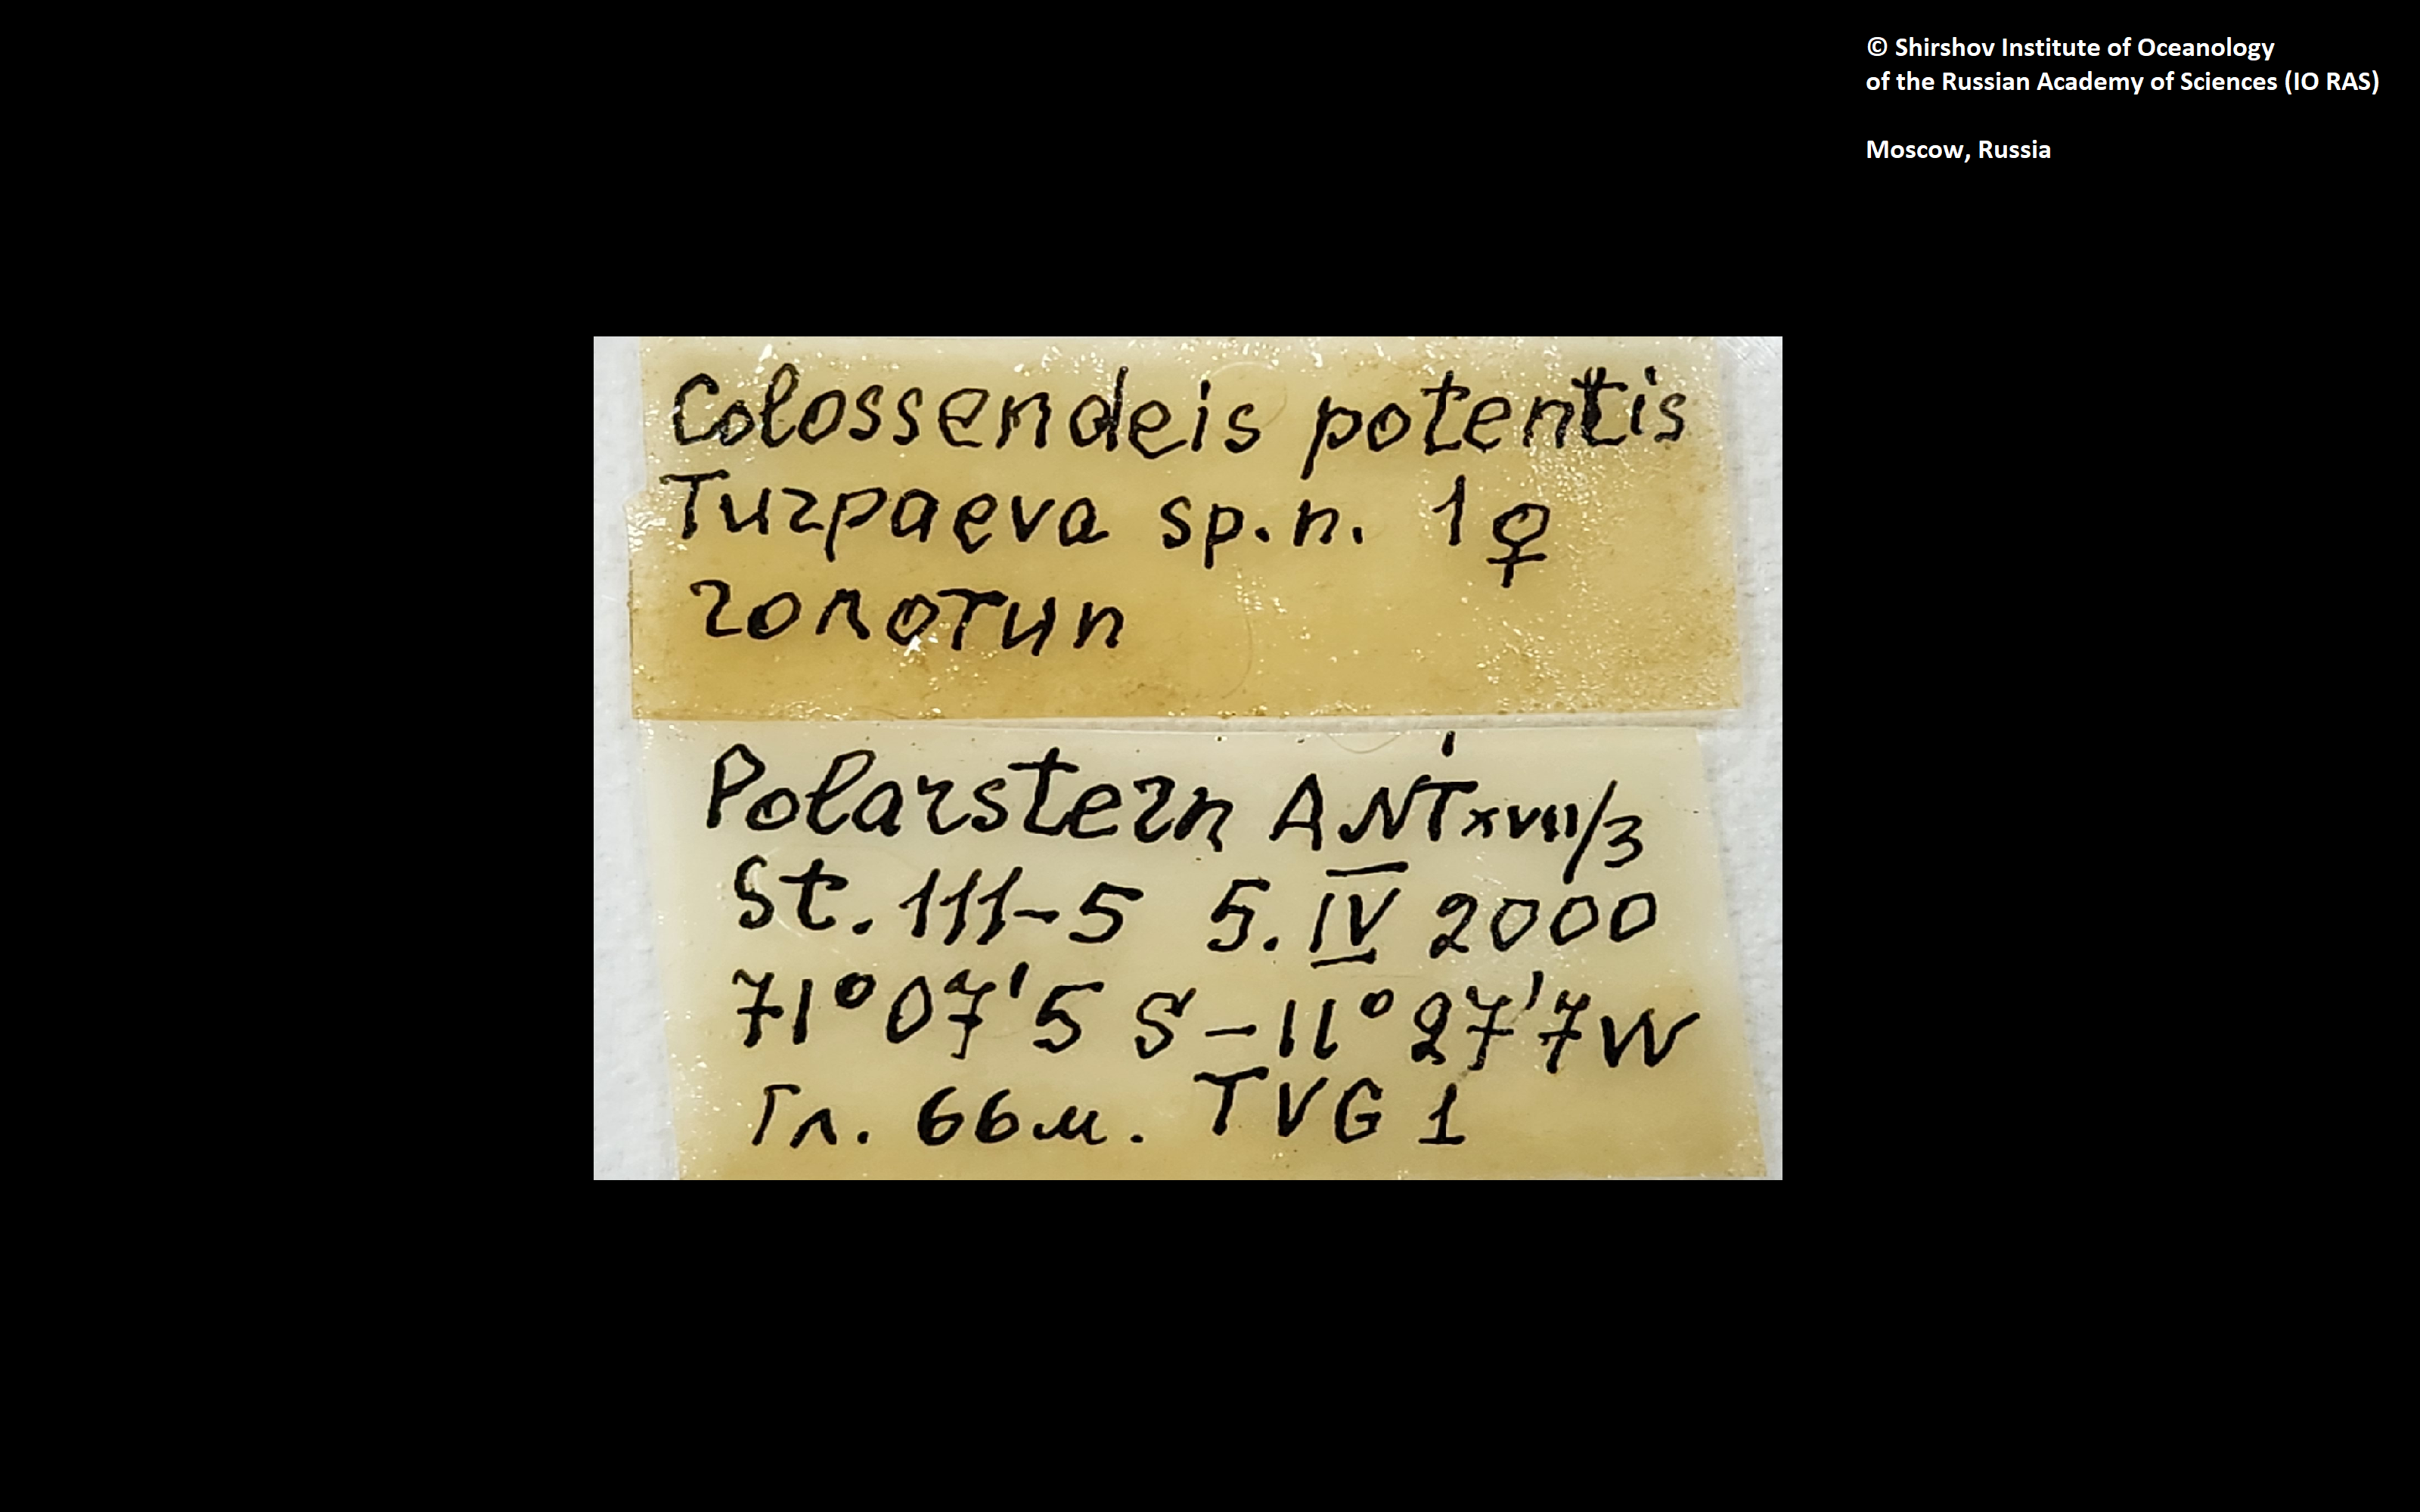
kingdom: Animalia
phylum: Arthropoda
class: Pycnogonida
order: Pantopoda
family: Colossendeidae
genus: Colossendeis
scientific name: Colossendeis potentis
